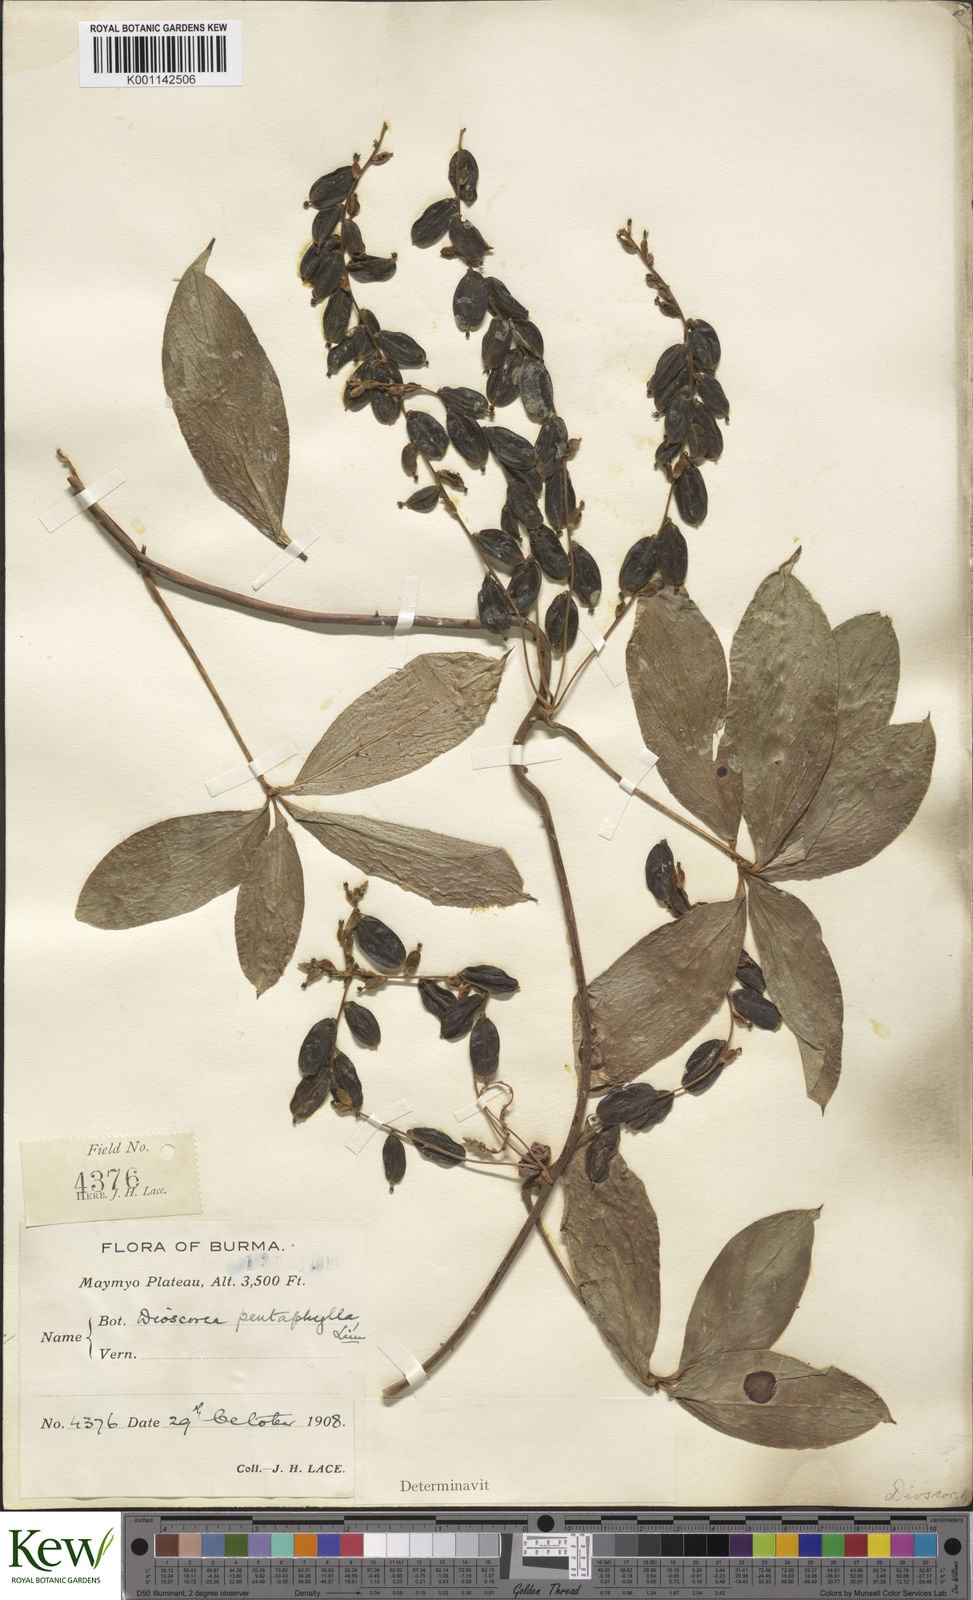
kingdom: Plantae
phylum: Tracheophyta
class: Liliopsida
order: Dioscoreales
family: Dioscoreaceae
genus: Dioscorea
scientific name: Dioscorea pentaphylla
